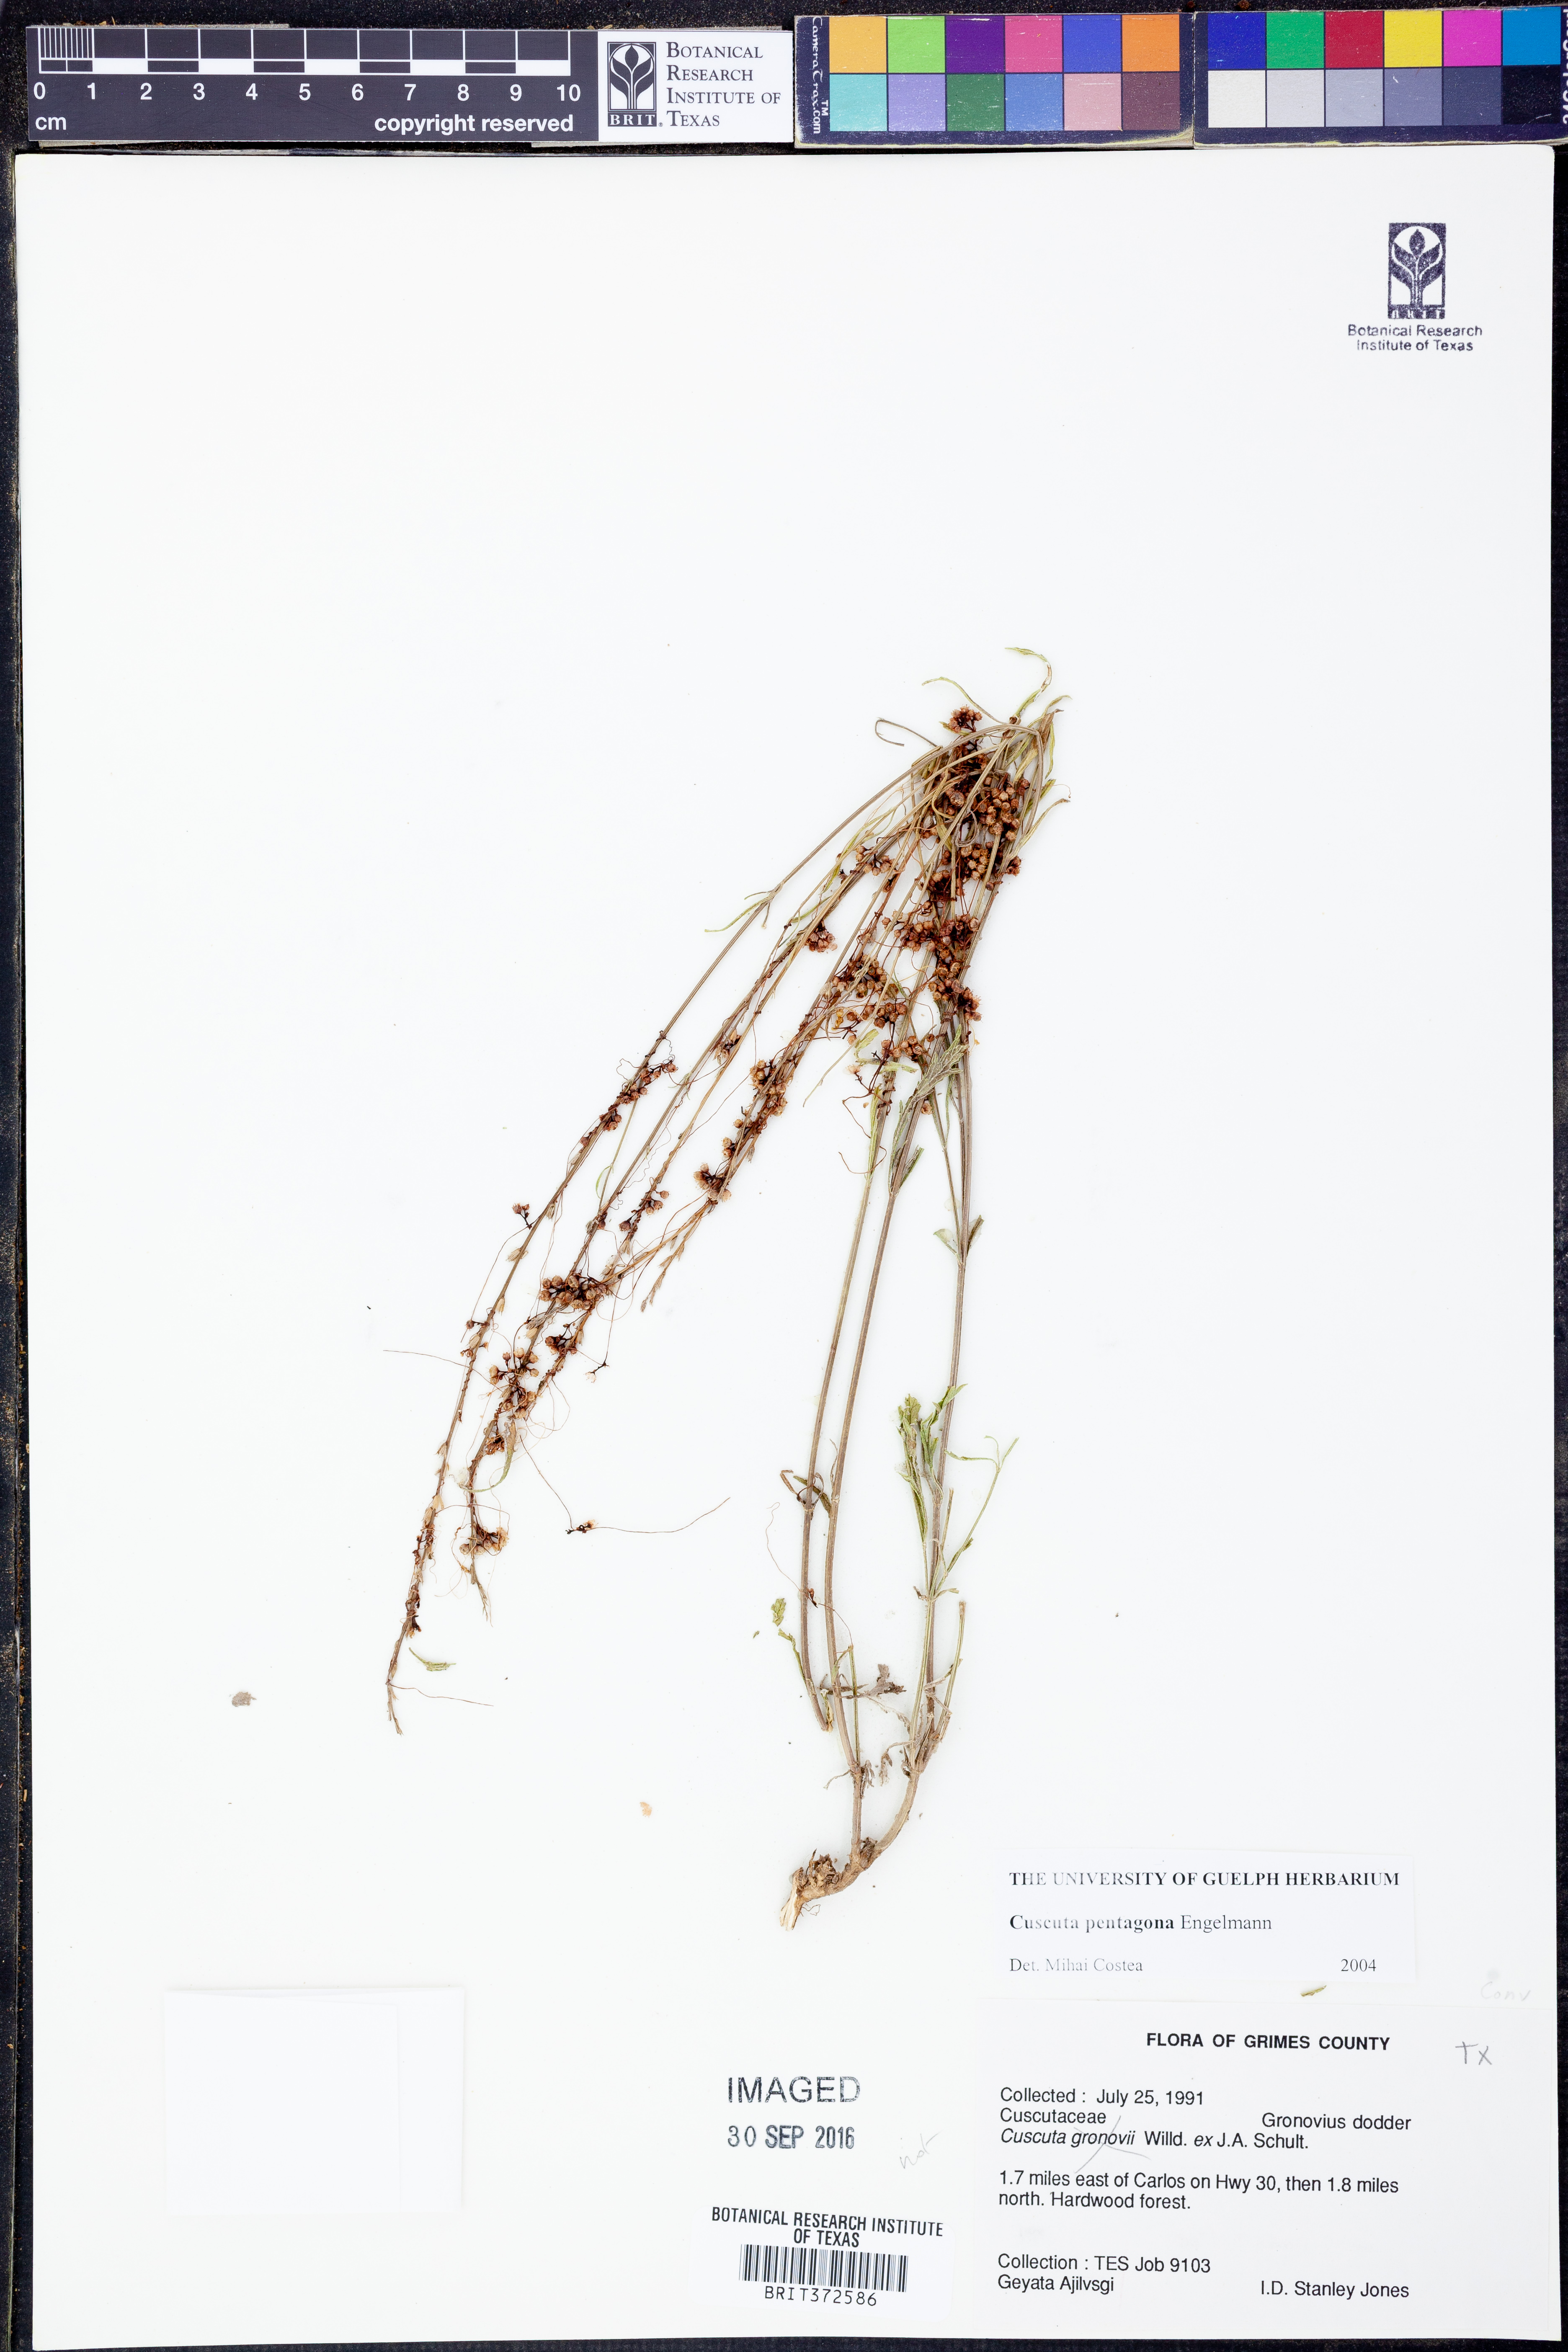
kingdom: Plantae
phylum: Tracheophyta
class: Magnoliopsida
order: Solanales
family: Convolvulaceae
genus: Cuscuta
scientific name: Cuscuta pentagona
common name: Fiveangled dodder
